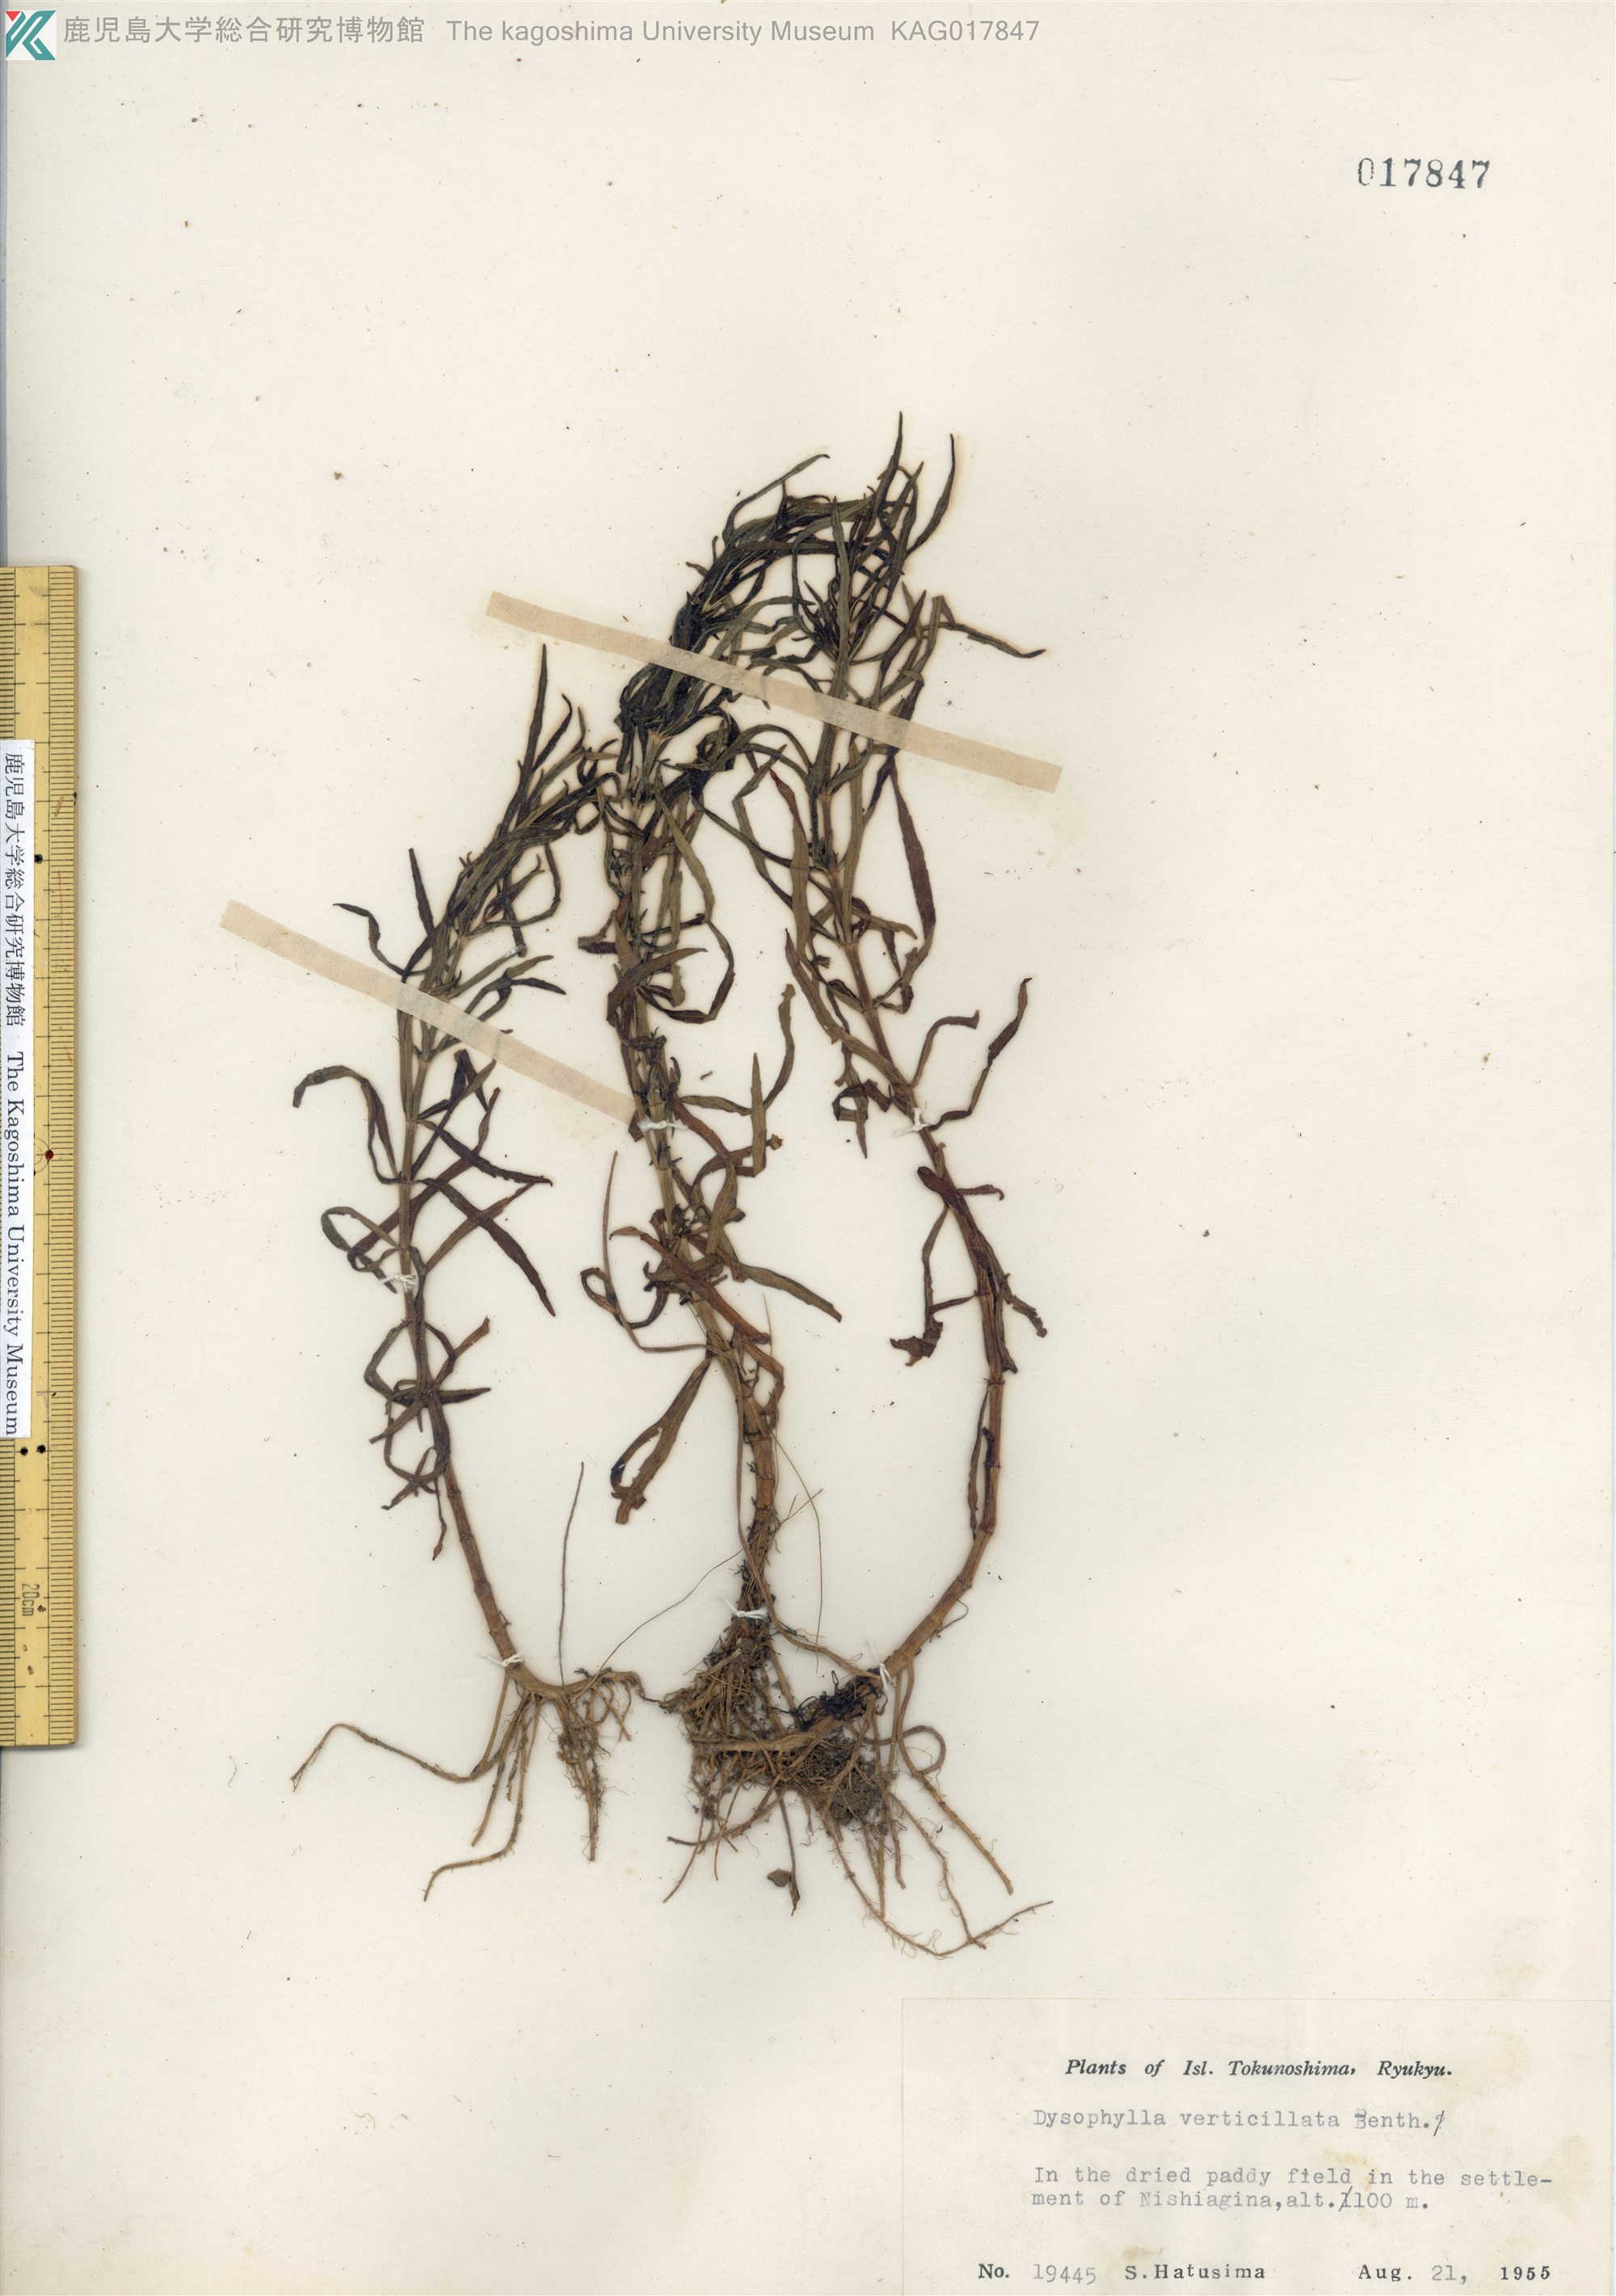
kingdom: Plantae
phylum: Tracheophyta
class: Magnoliopsida
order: Lamiales
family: Lamiaceae
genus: Pogostemon
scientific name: Pogostemon stellatus
